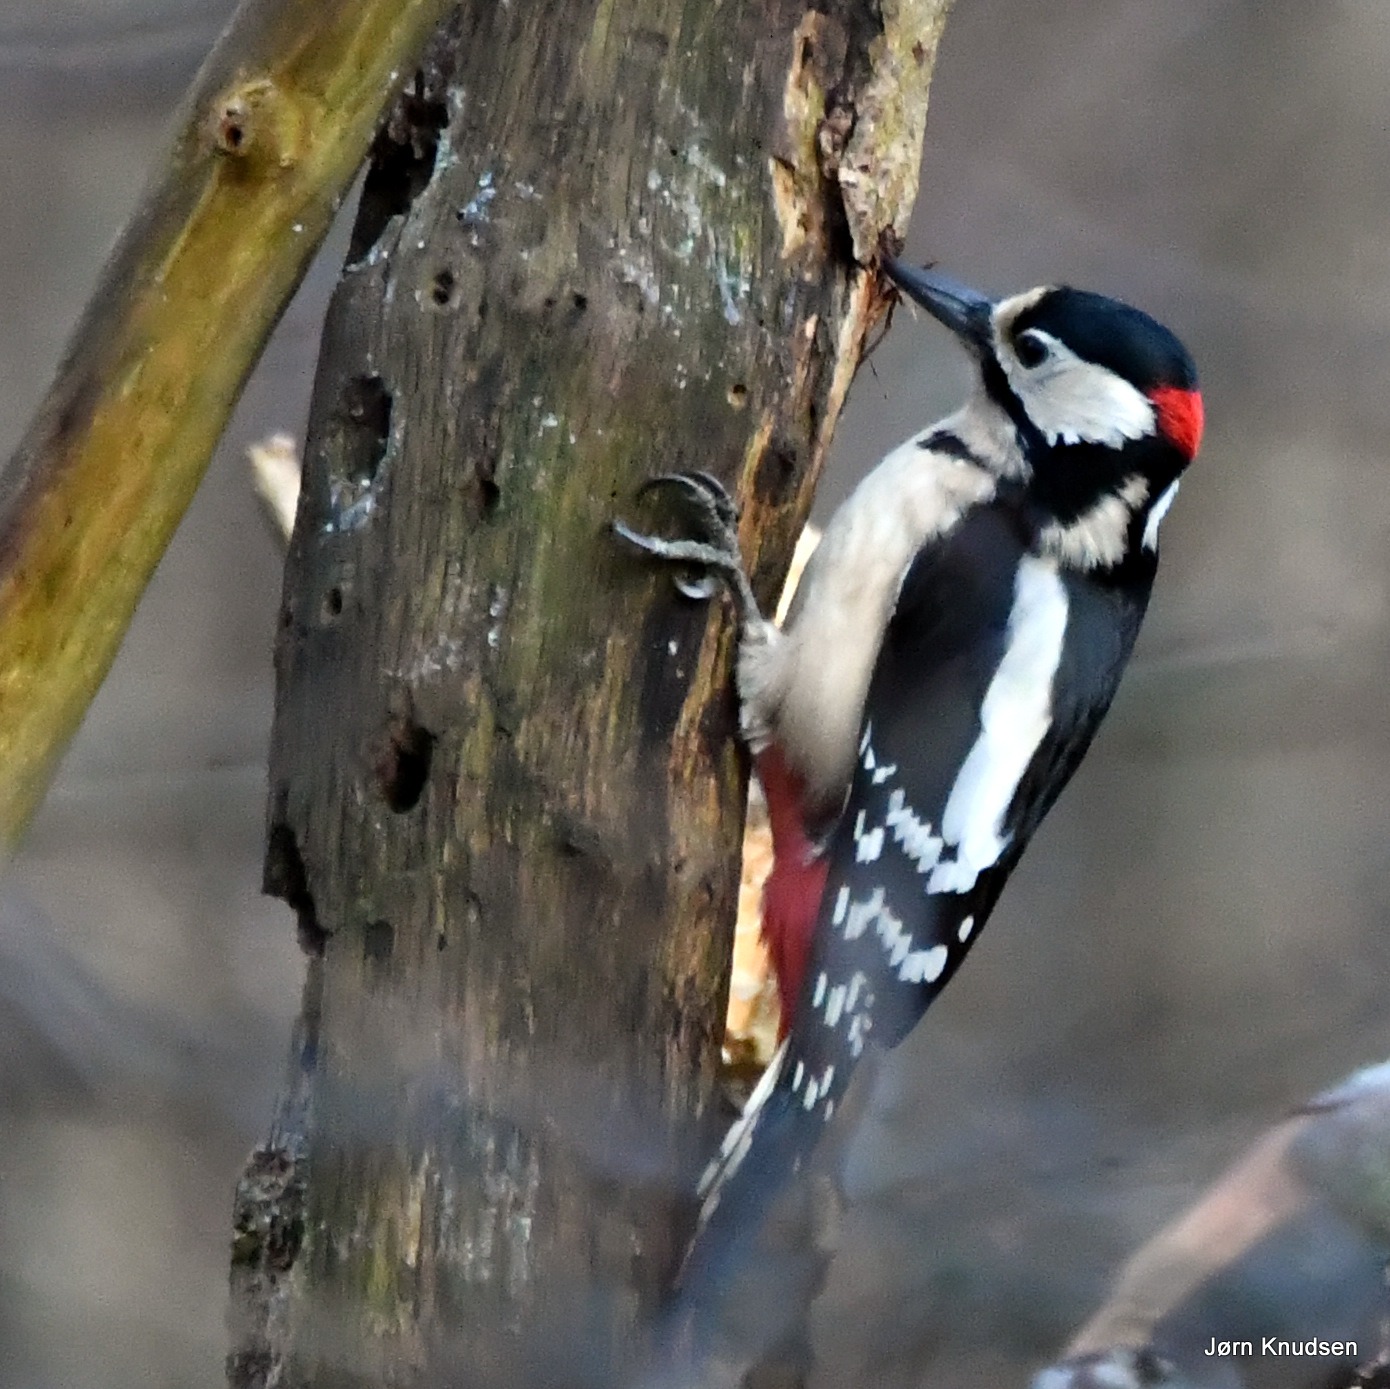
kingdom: Animalia
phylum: Chordata
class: Aves
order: Piciformes
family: Picidae
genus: Dendrocopos
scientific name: Dendrocopos major
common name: Stor flagspætte
